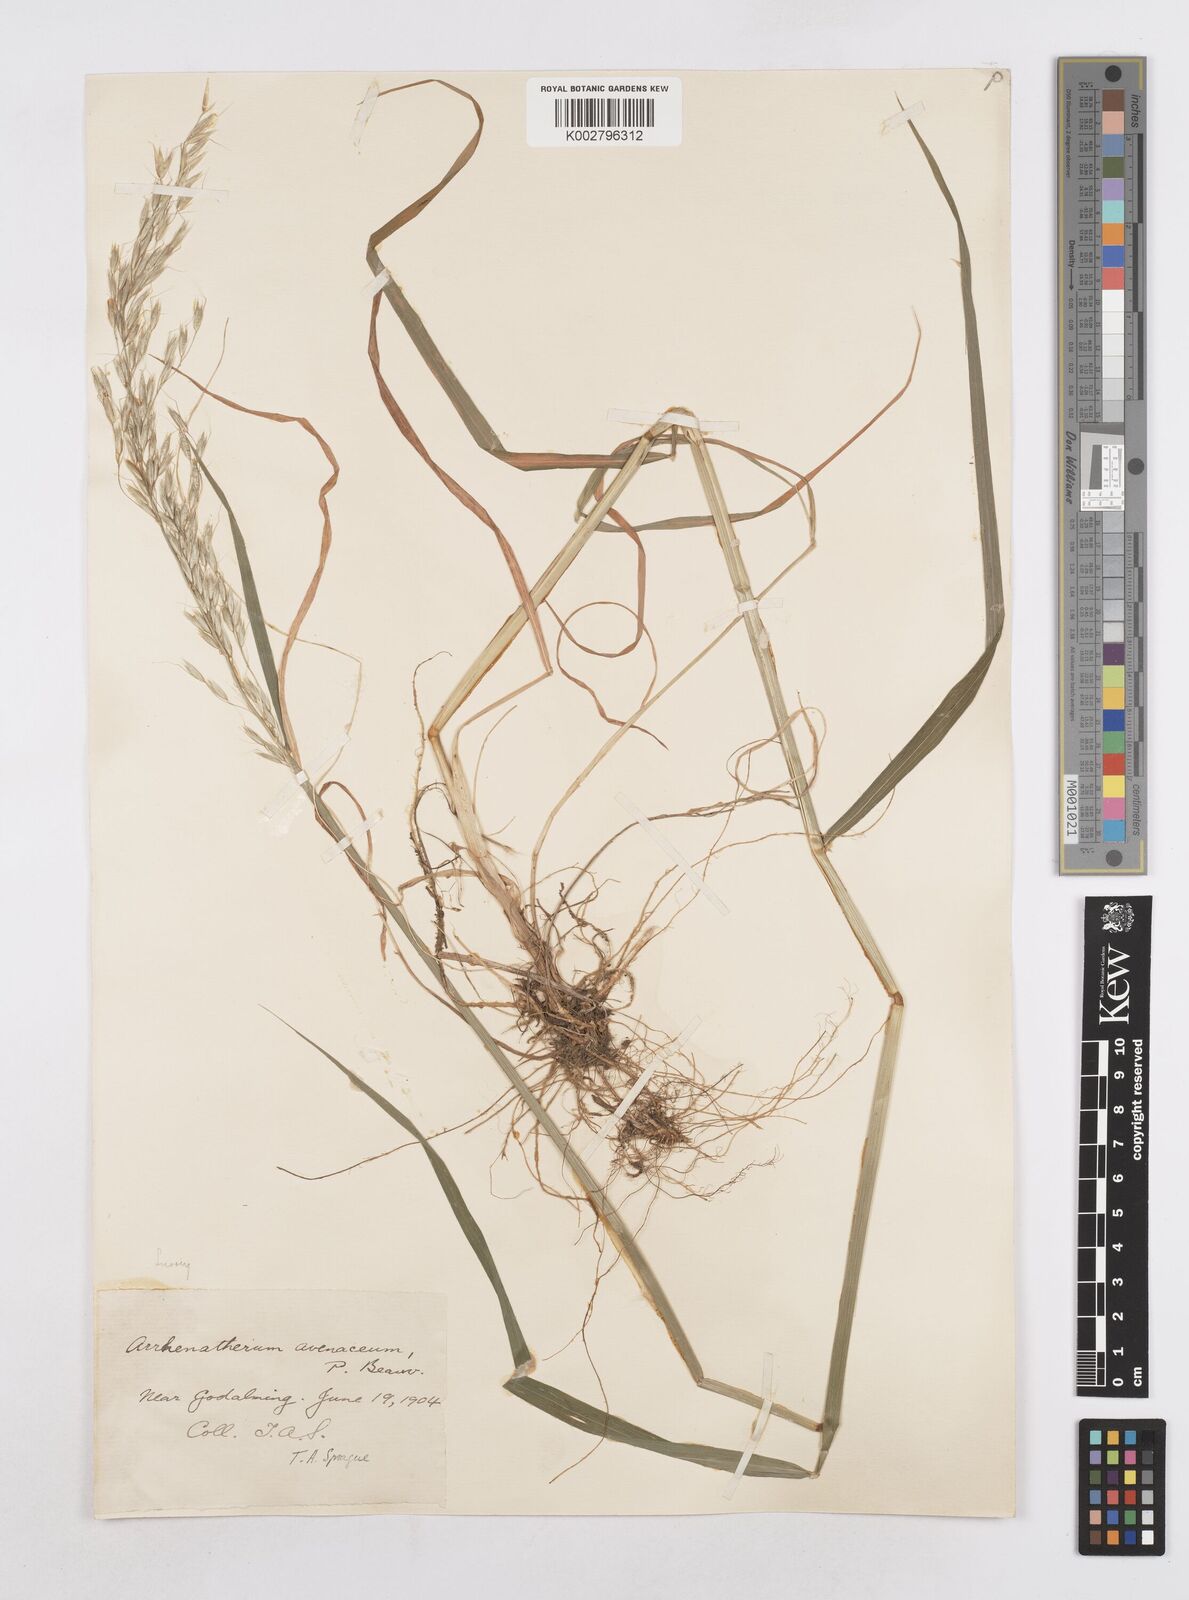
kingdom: Plantae
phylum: Tracheophyta
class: Liliopsida
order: Poales
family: Poaceae
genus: Arrhenatherum
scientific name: Arrhenatherum elatius
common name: Tall oatgrass
